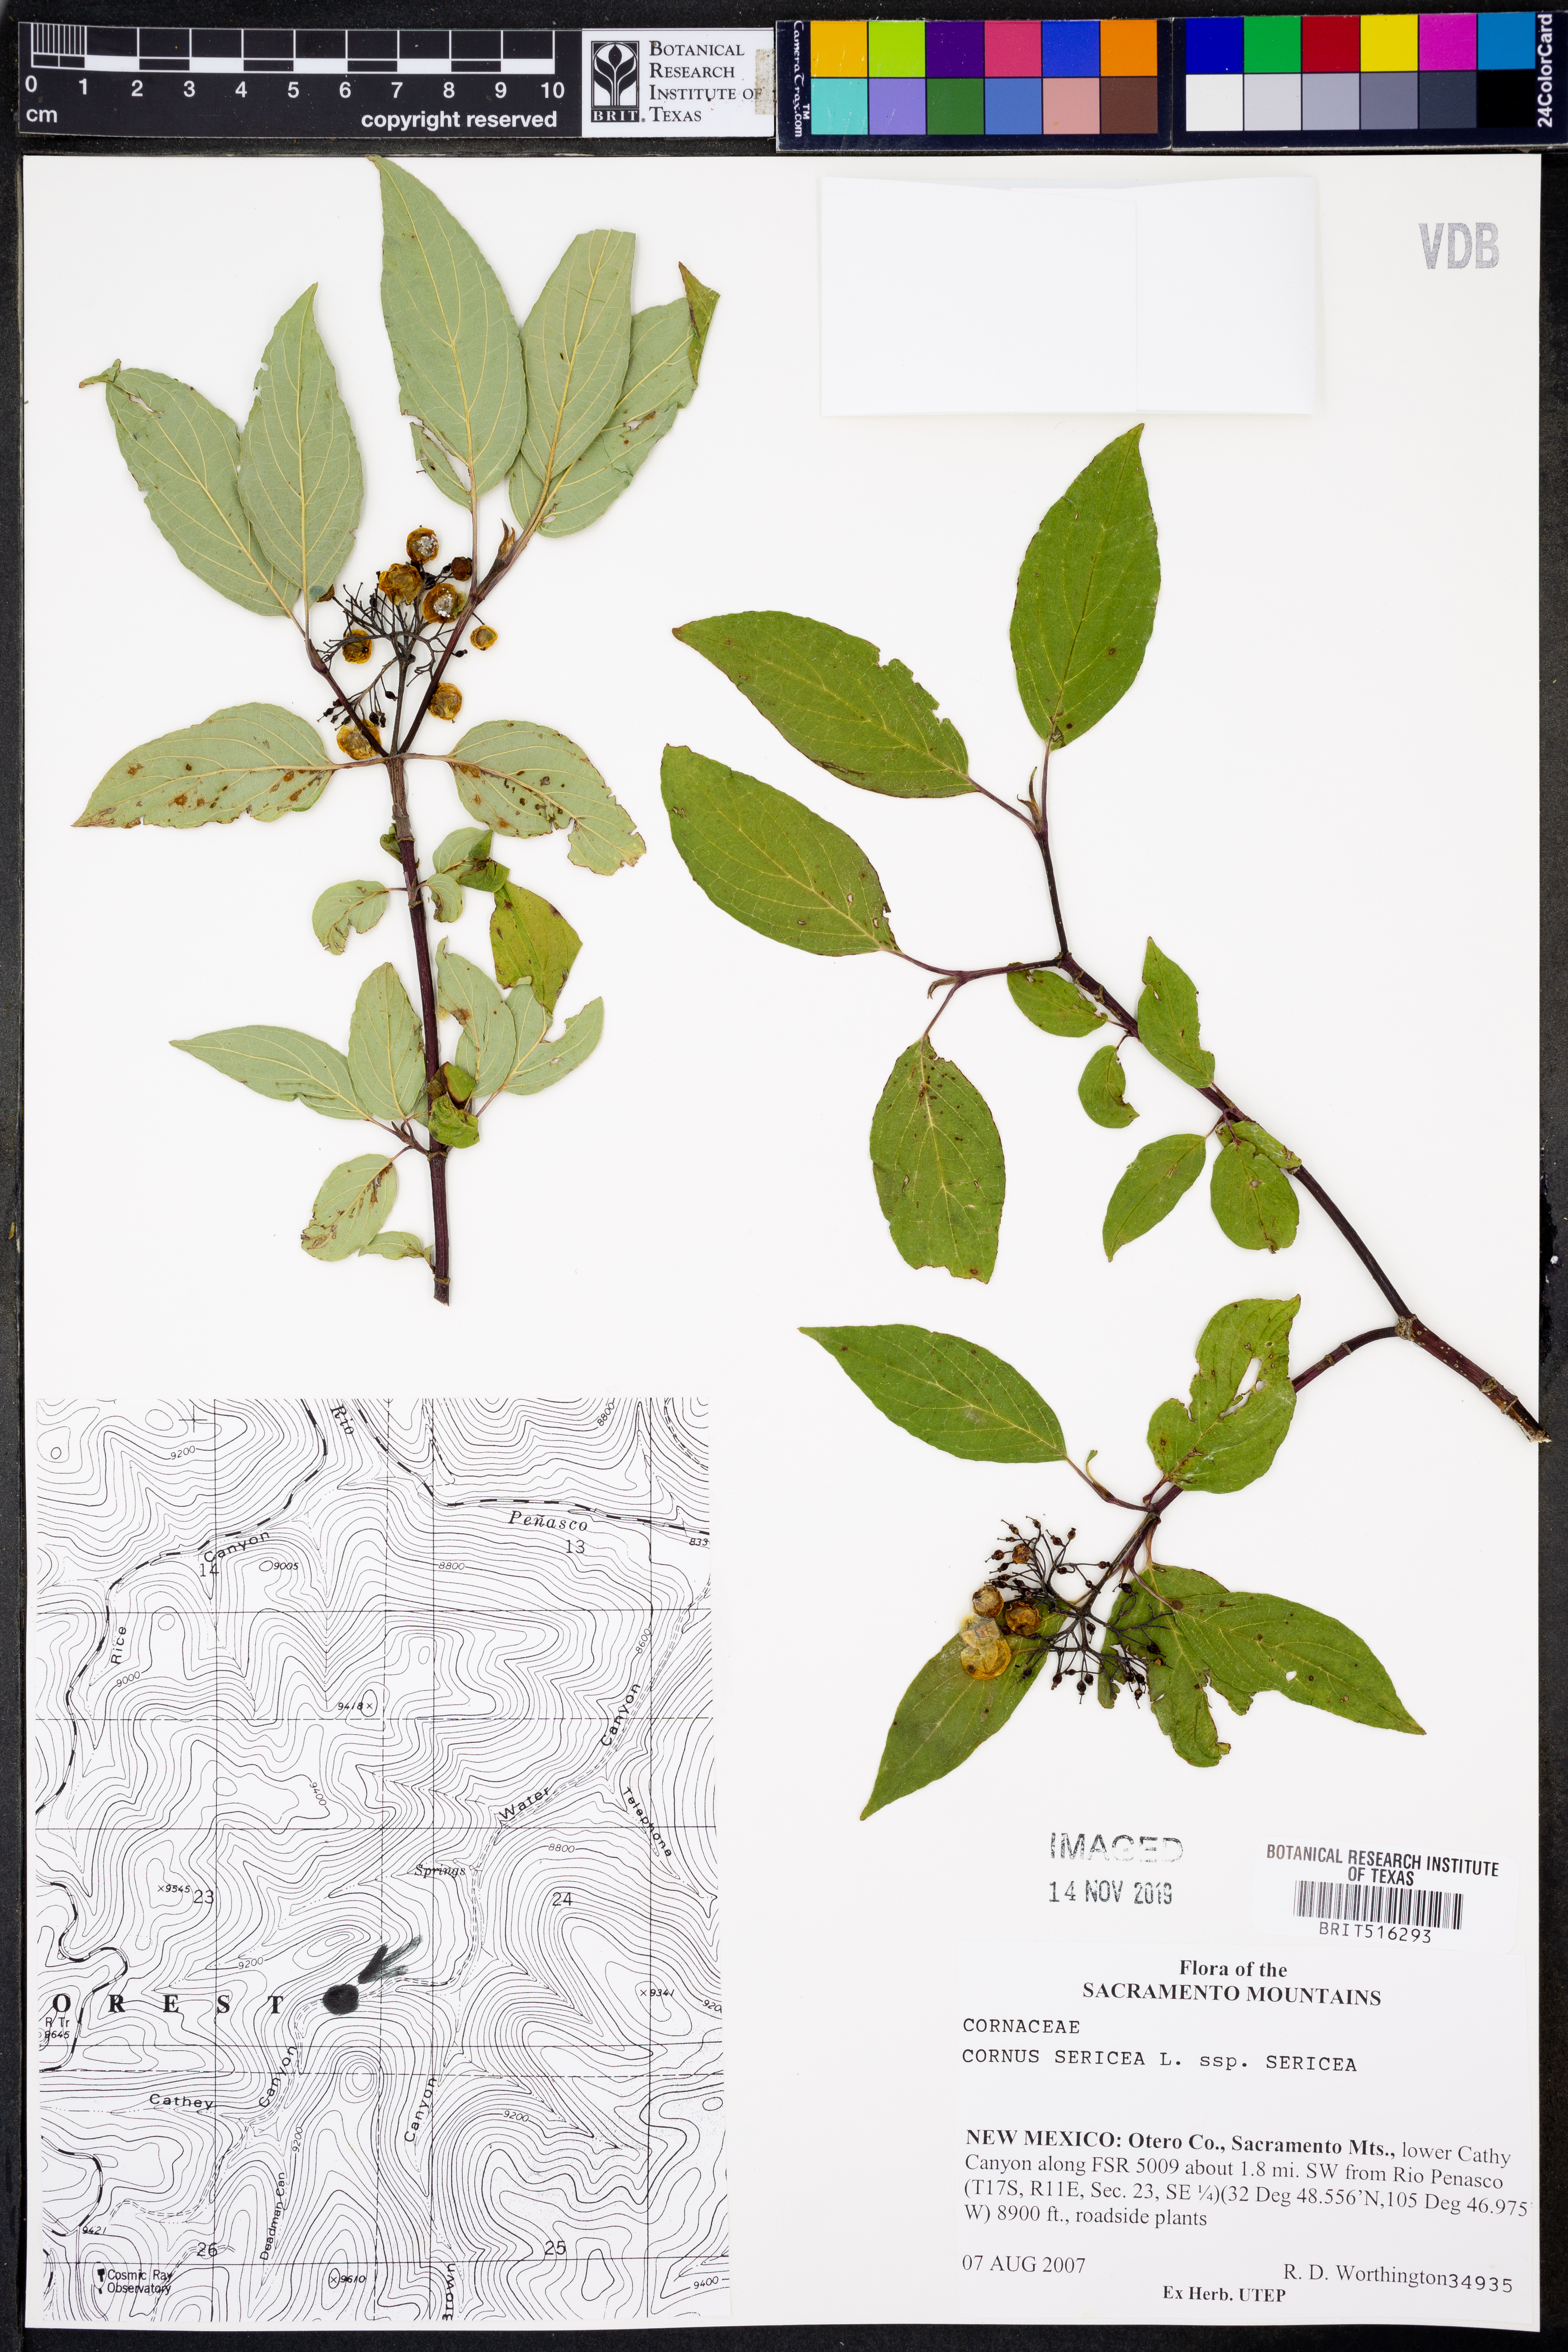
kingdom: Plantae
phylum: Tracheophyta
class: Magnoliopsida
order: Cornales
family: Cornaceae
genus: Cornus
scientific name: Cornus sericea
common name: Red-osier dogwood
